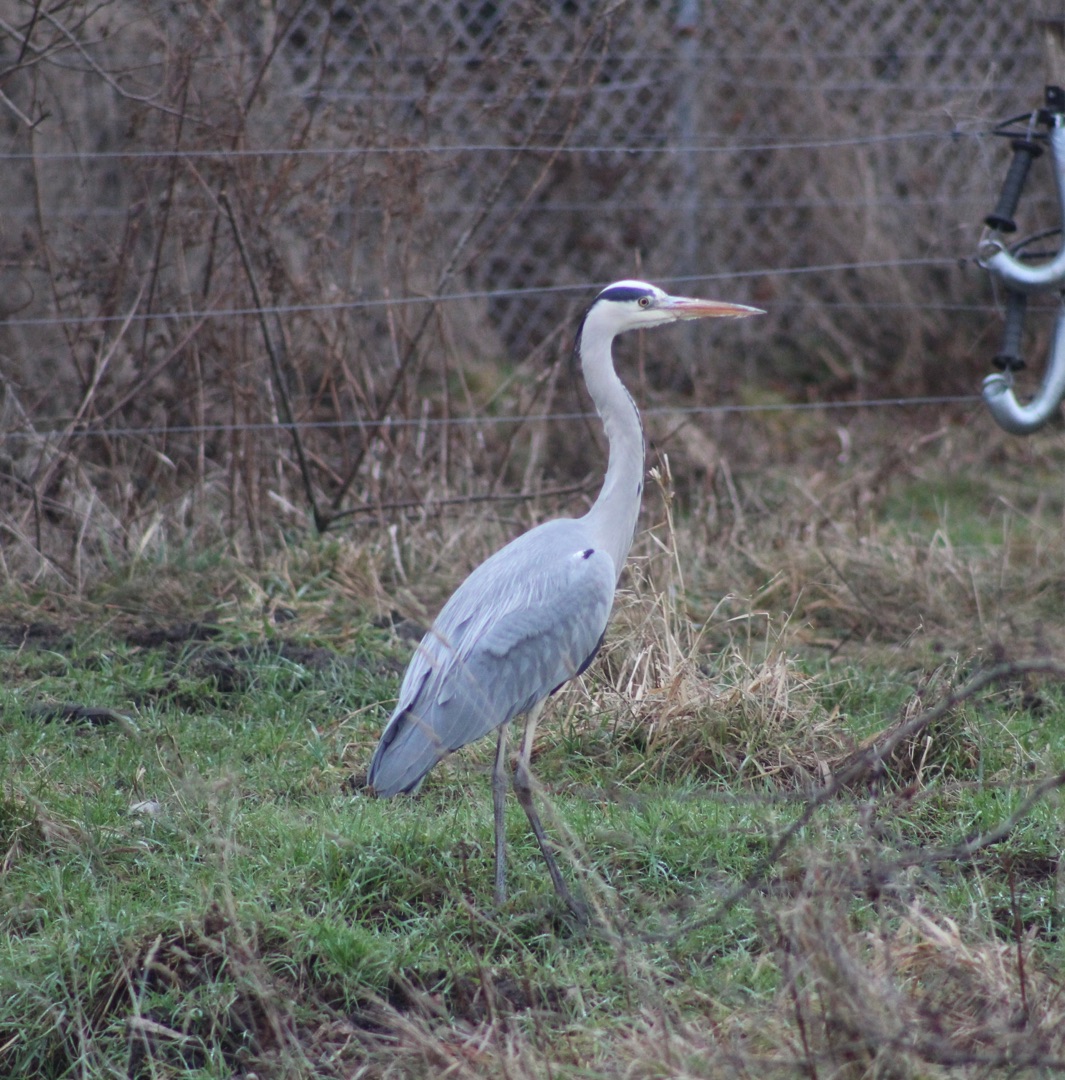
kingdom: Animalia
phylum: Chordata
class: Aves
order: Pelecaniformes
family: Ardeidae
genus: Ardea
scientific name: Ardea cinerea
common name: Fiskehejre
